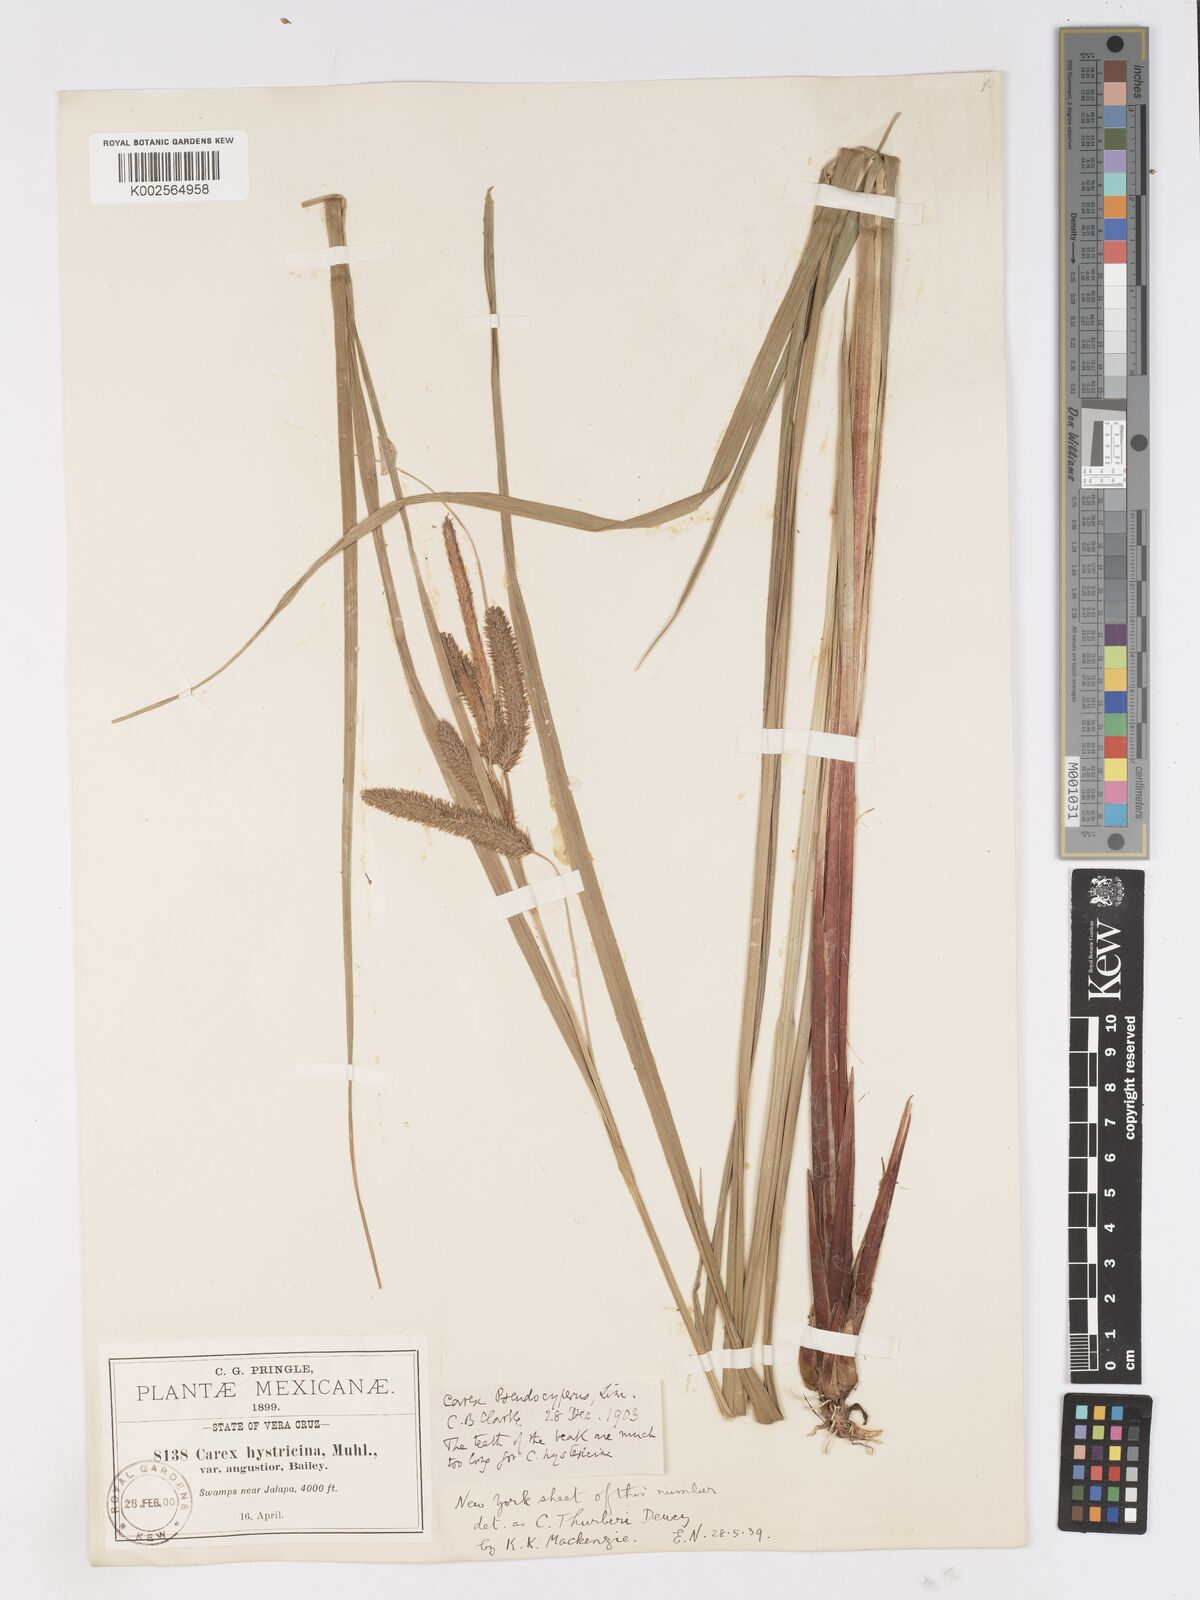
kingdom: Plantae
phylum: Tracheophyta
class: Liliopsida
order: Poales
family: Cyperaceae
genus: Carex
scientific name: Carex thurberi
